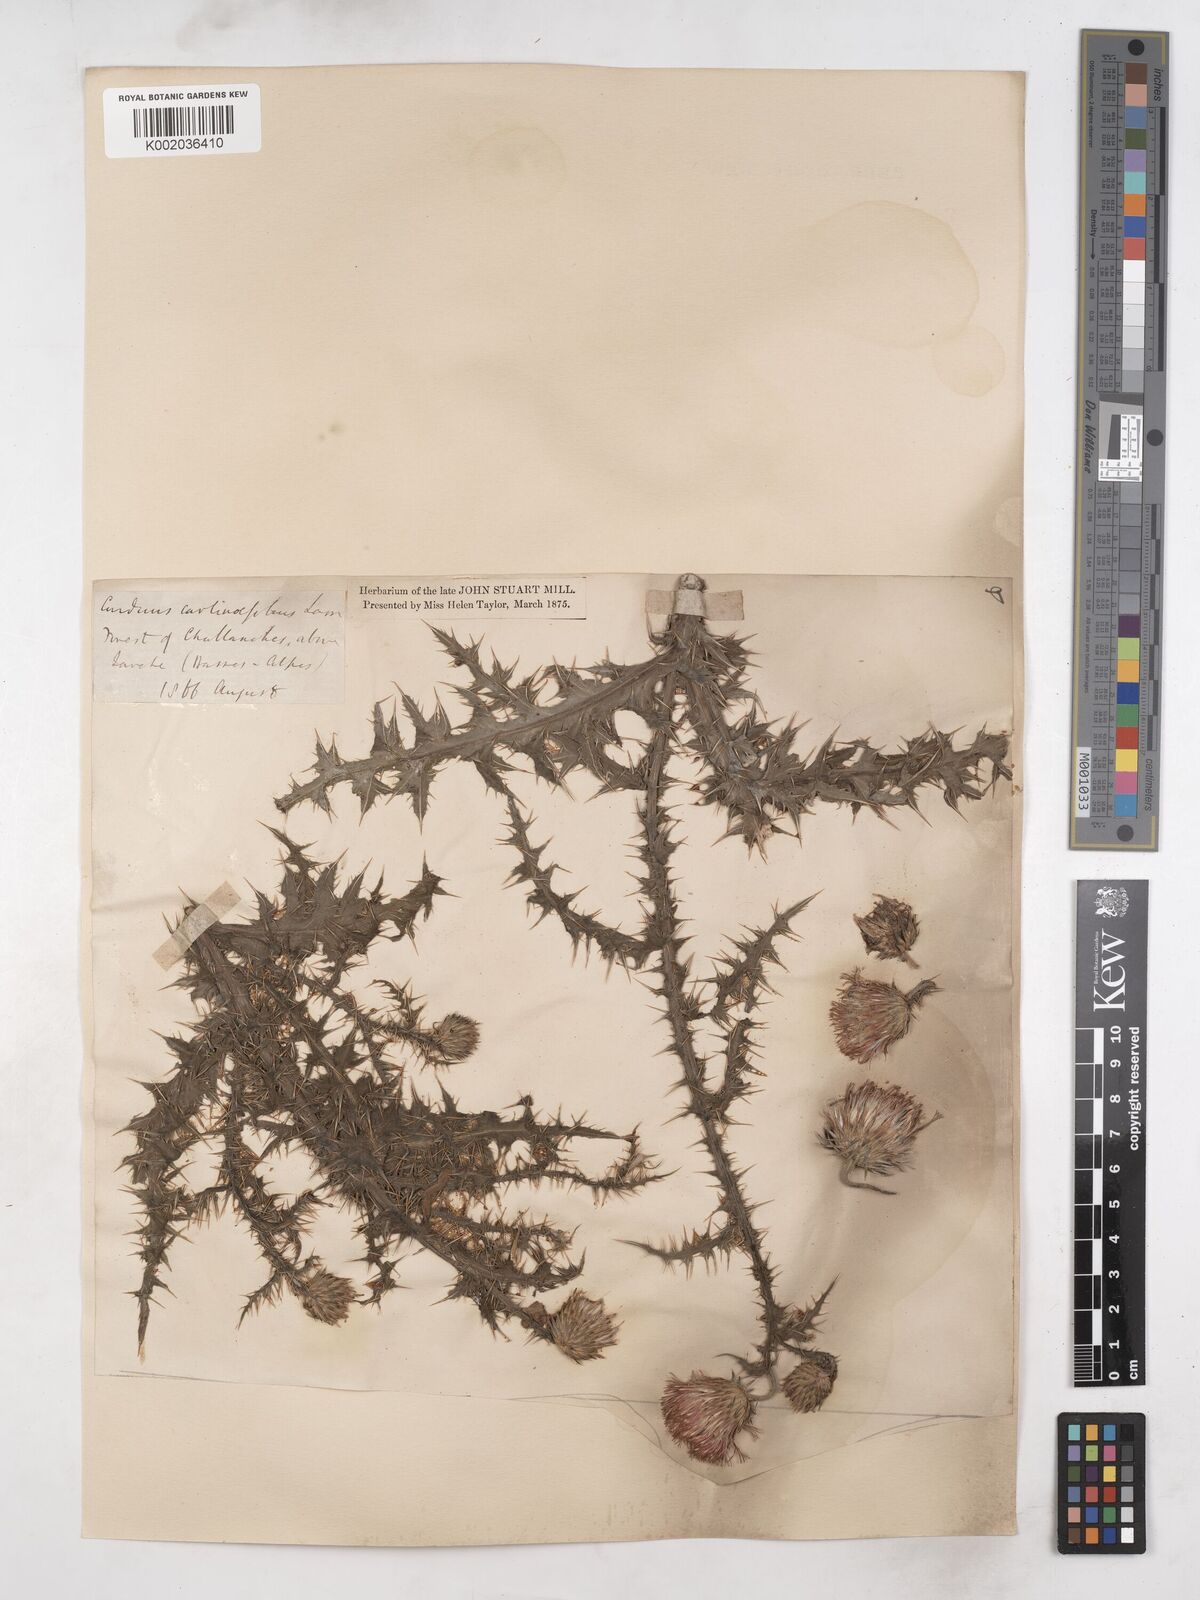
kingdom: Plantae
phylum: Tracheophyta
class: Magnoliopsida
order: Asterales
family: Asteraceae
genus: Carduus
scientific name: Carduus carlinifolius
